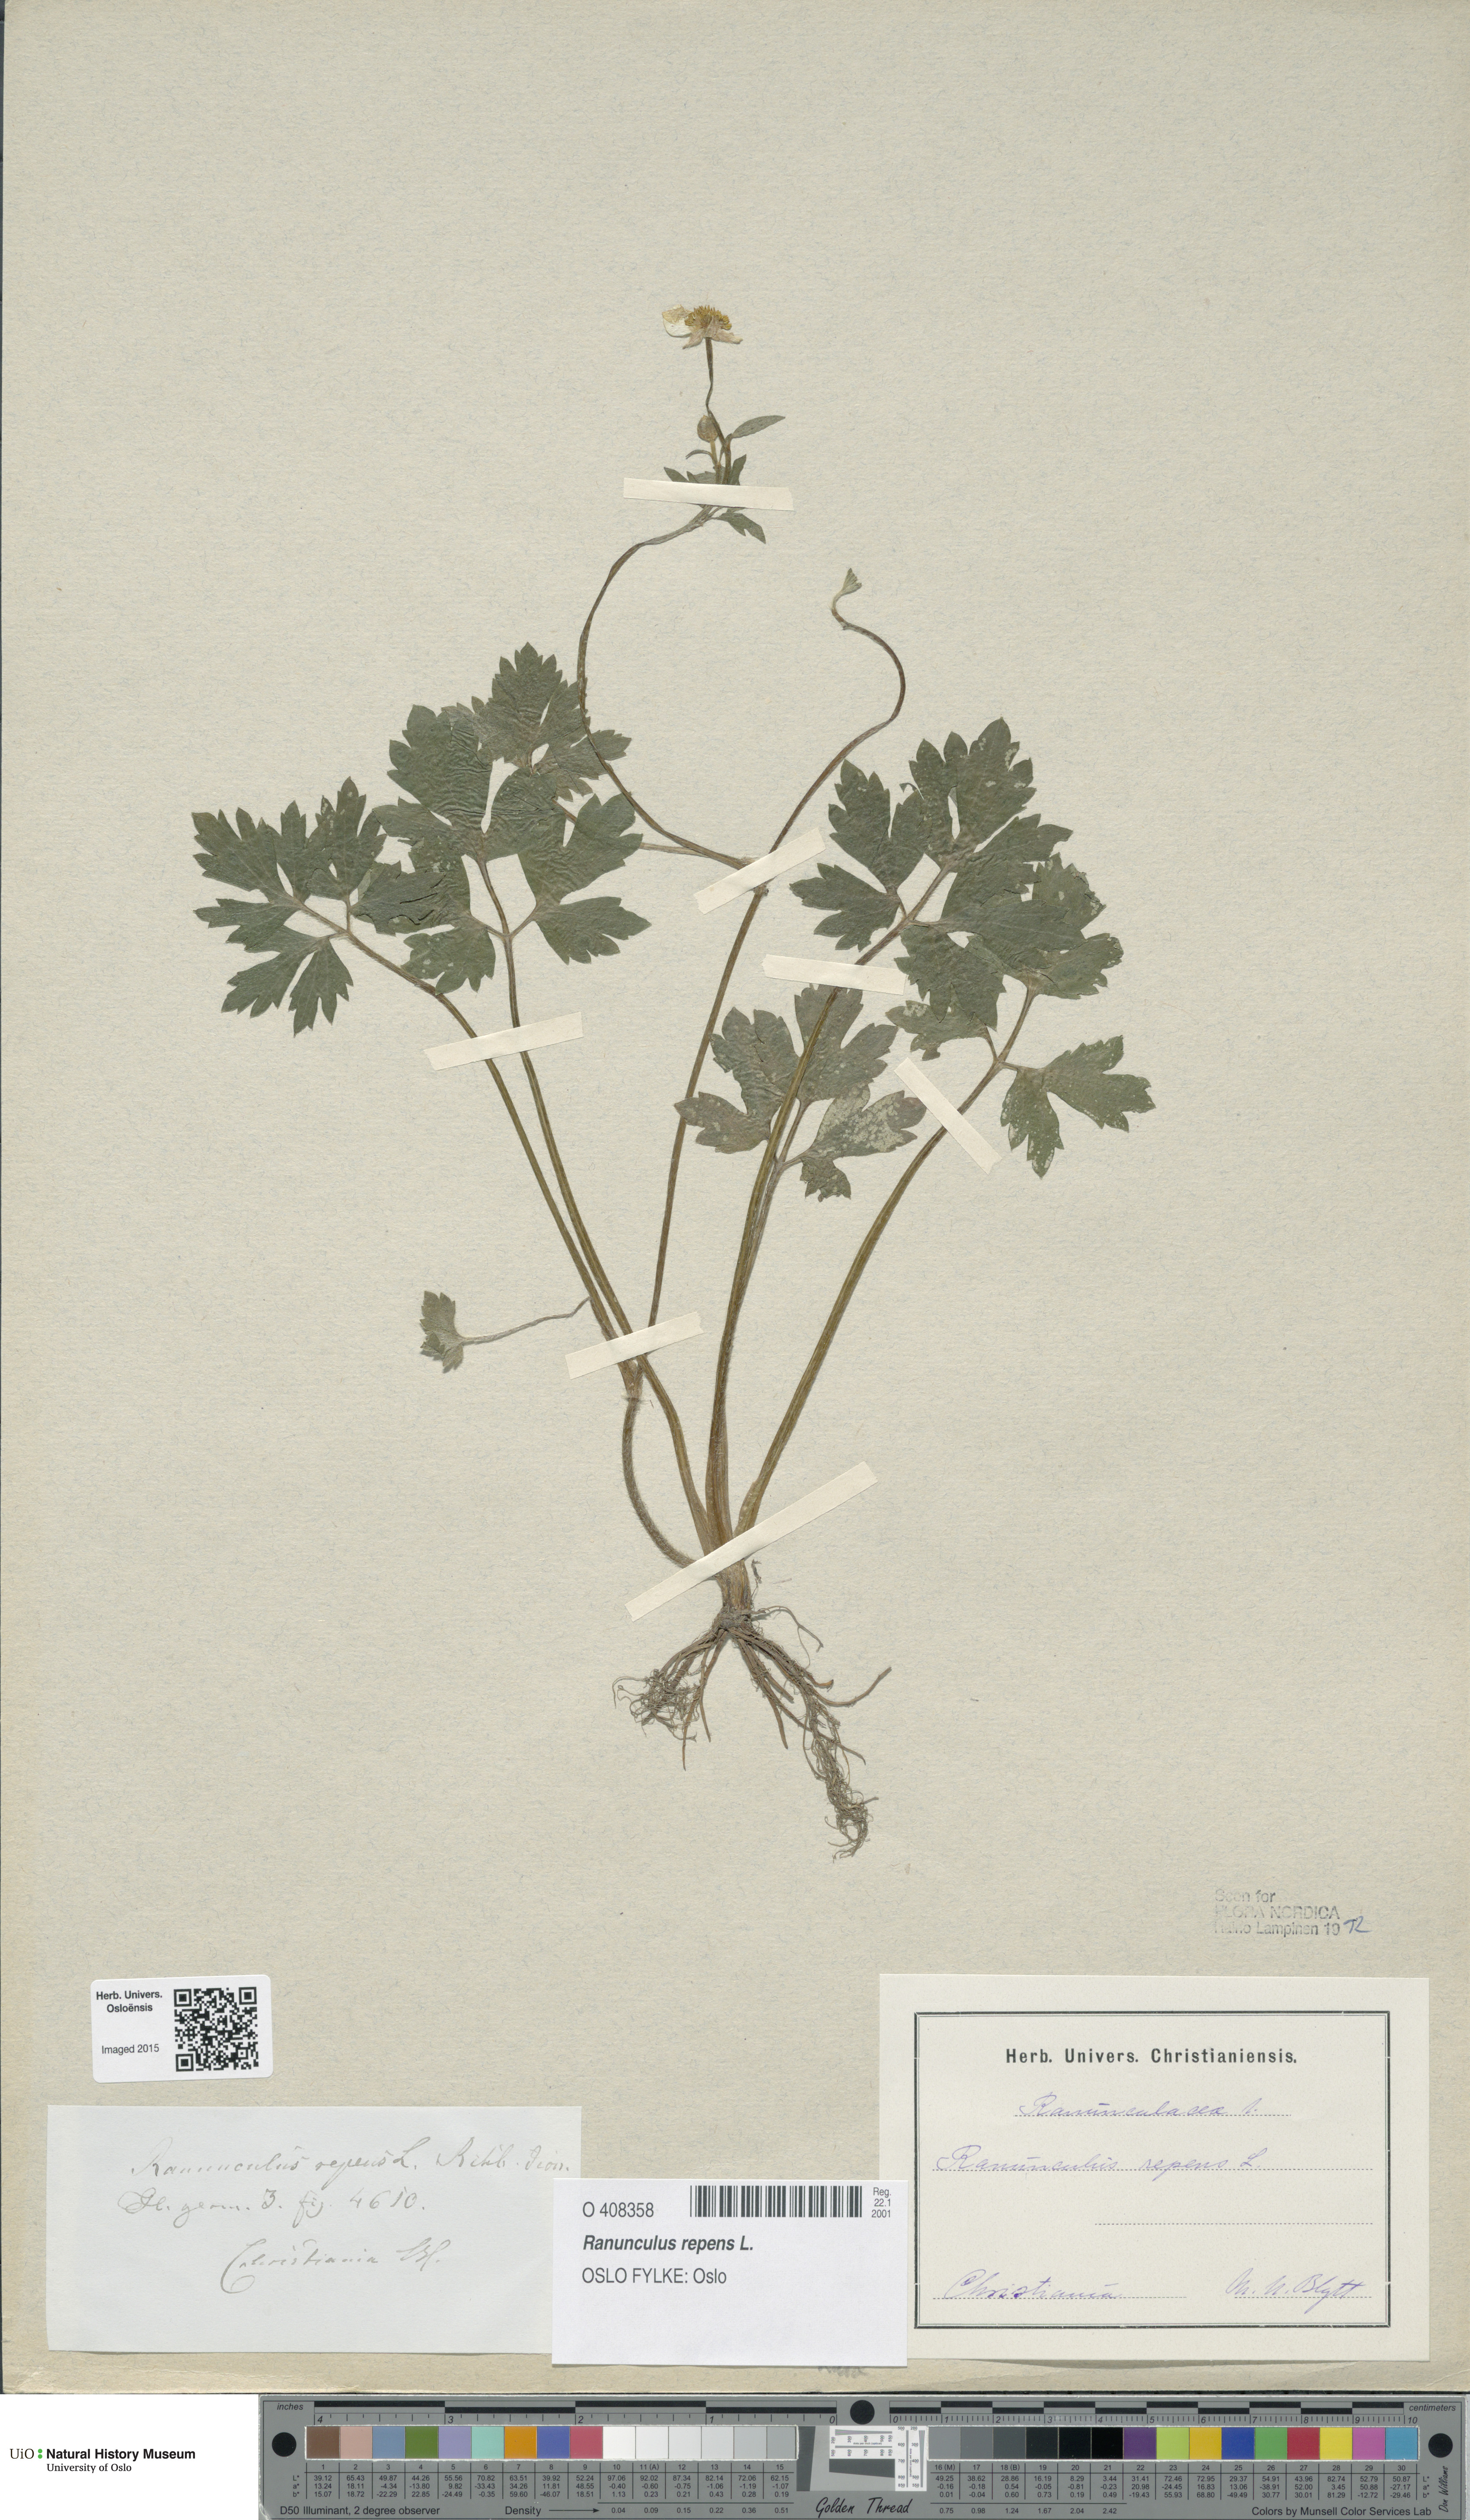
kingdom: Plantae
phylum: Tracheophyta
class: Magnoliopsida
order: Ranunculales
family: Ranunculaceae
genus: Ranunculus
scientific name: Ranunculus repens
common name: Creeping buttercup
